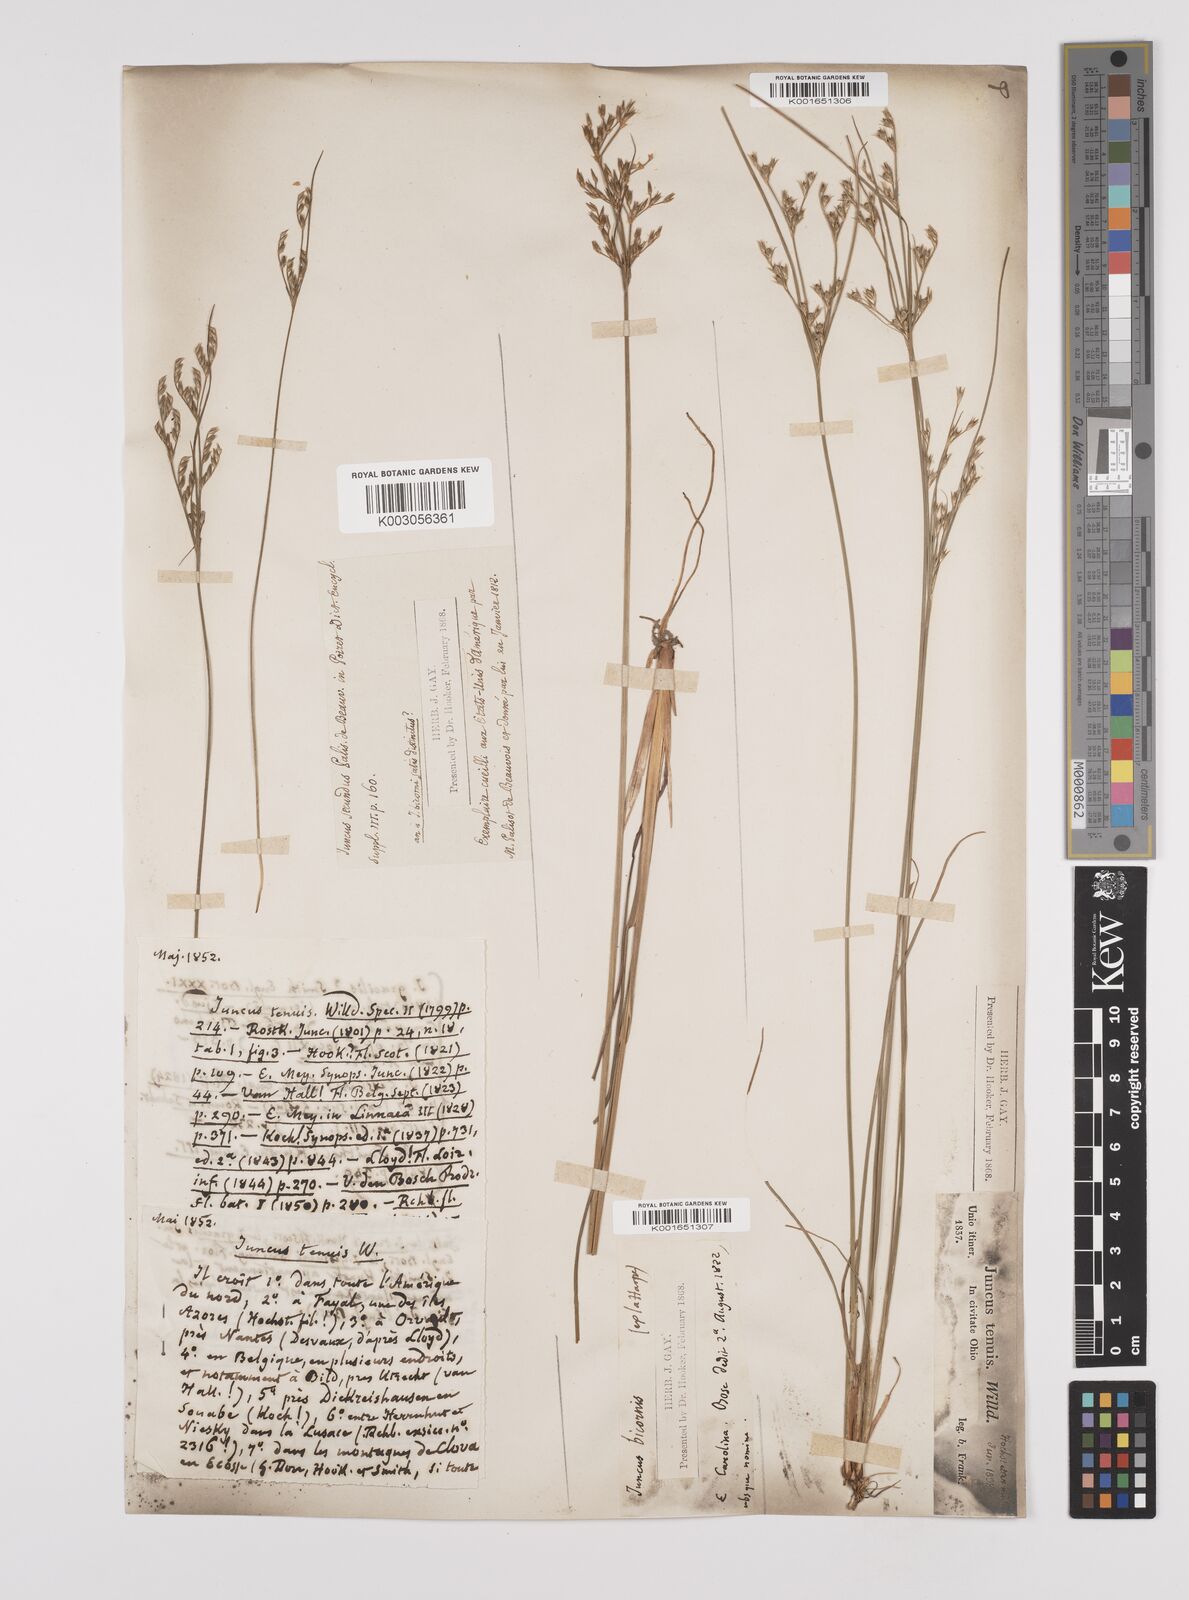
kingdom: Plantae
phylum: Tracheophyta
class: Liliopsida
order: Poales
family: Juncaceae
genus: Juncus
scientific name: Juncus tenuis
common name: Slender rush
